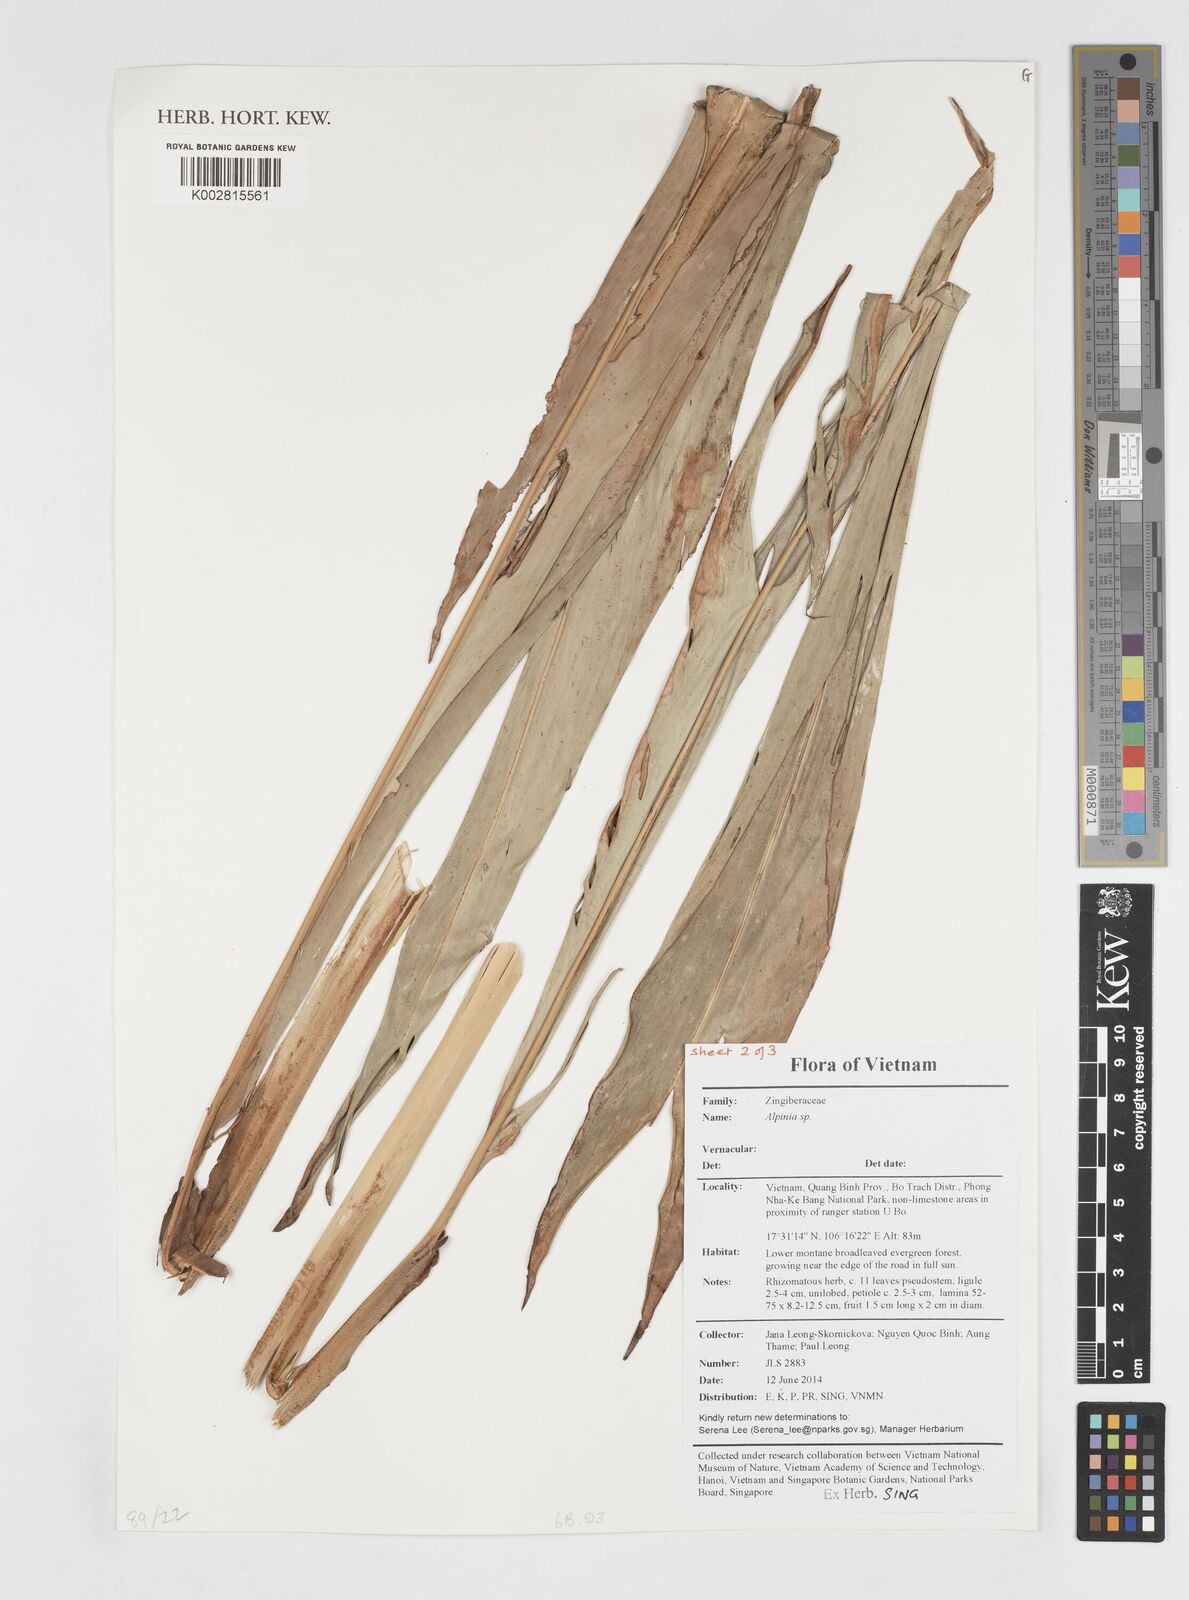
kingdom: Plantae
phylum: Tracheophyta
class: Liliopsida
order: Zingiberales
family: Zingiberaceae
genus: Alpinia
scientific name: Alpinia
